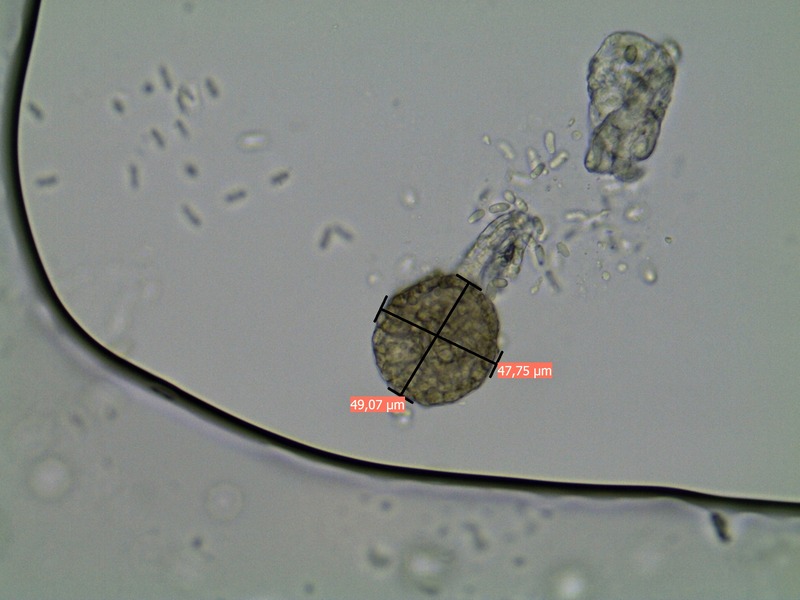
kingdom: Fungi
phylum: Ascomycota
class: Dothideomycetes
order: Pleosporales
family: Phaeosphaeriaceae
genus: Ampelomyces
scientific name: Ampelomyces quisqualis
